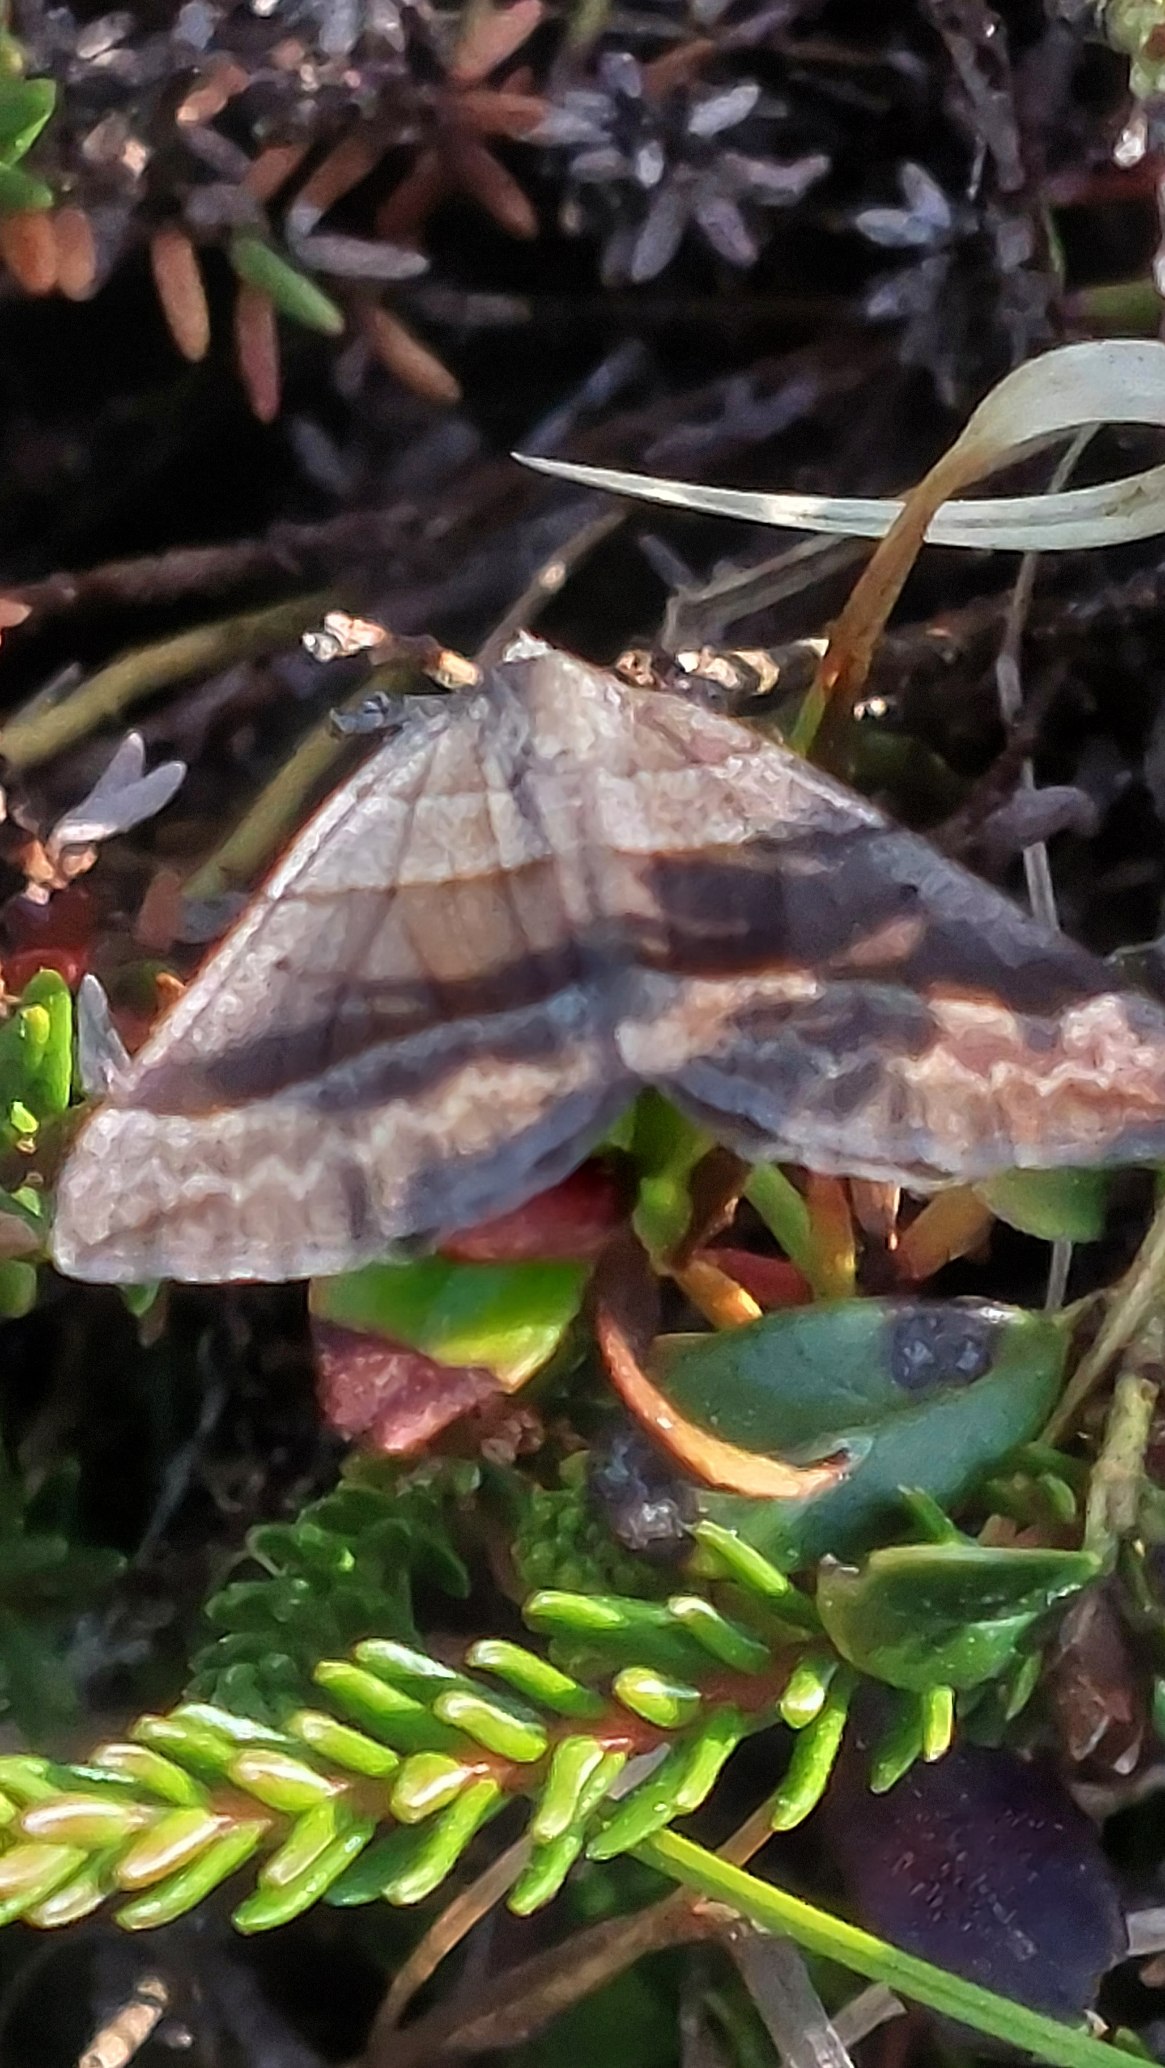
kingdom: Animalia
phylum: Arthropoda
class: Insecta
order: Lepidoptera
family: Geometridae
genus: Scotopteryx
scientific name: Scotopteryx chenopodiata
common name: Almindelig spidsvingemåler
